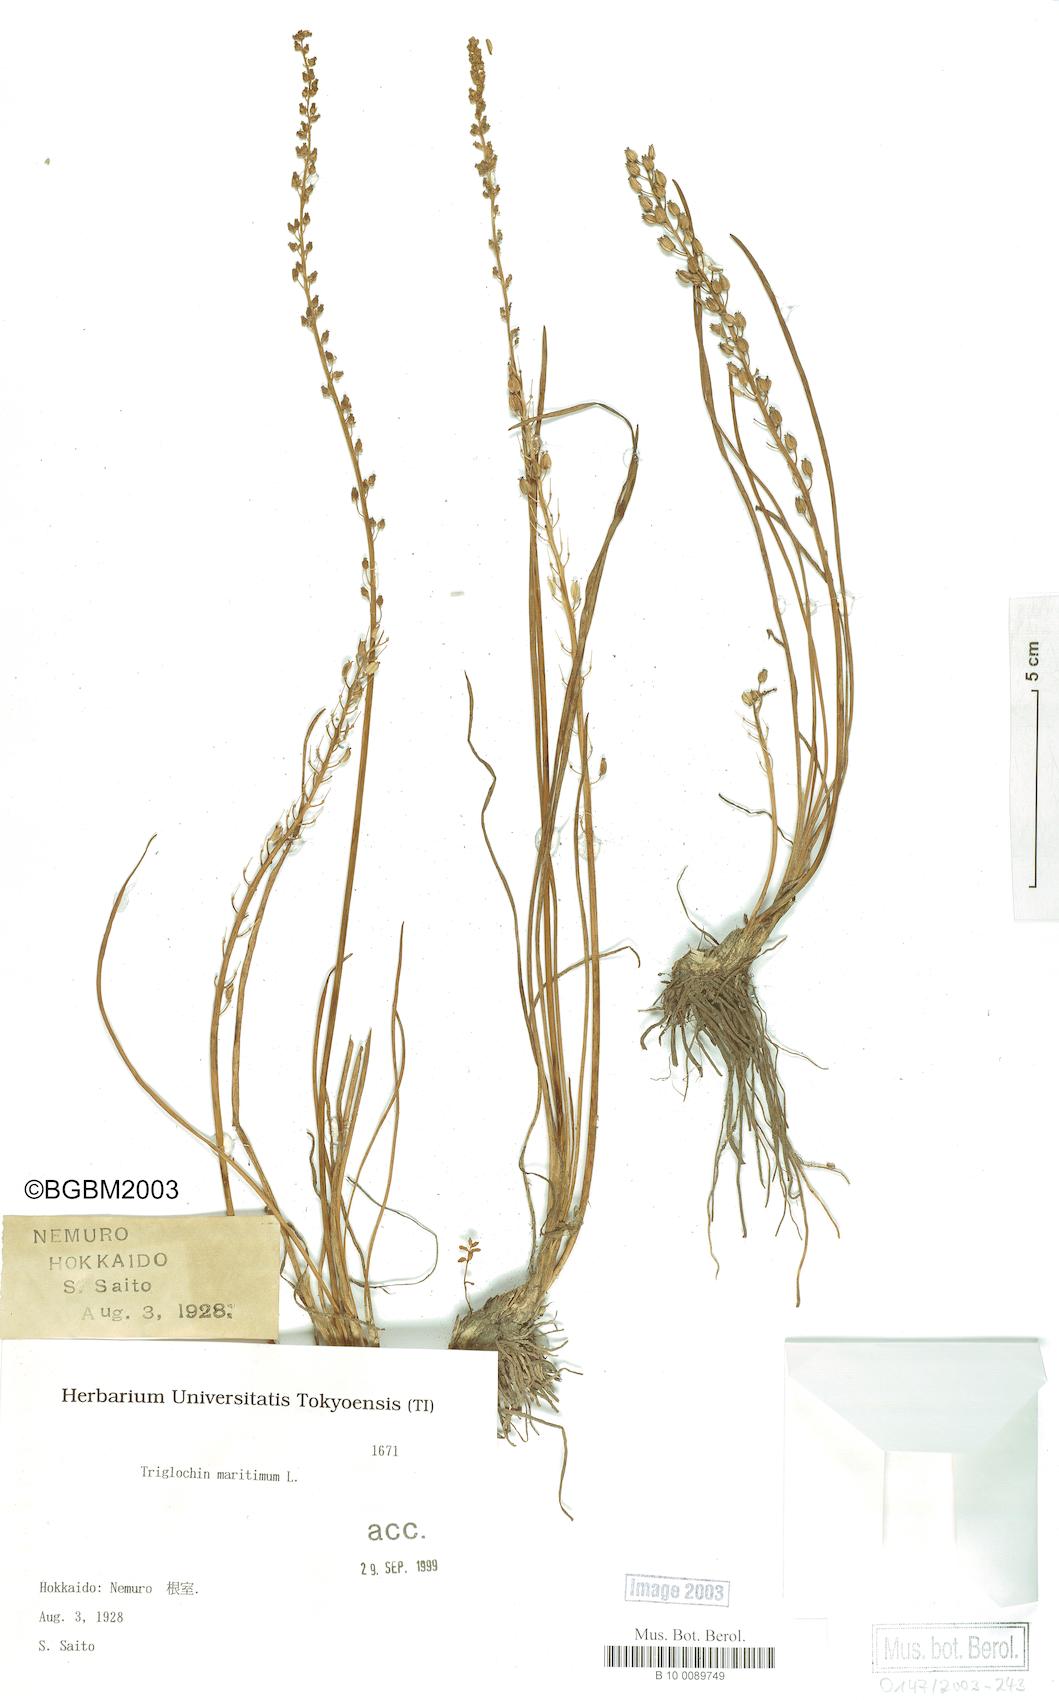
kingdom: Plantae
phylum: Tracheophyta
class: Liliopsida
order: Alismatales
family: Juncaginaceae
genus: Triglochin
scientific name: Triglochin maritima
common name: Sea arrowgrass
